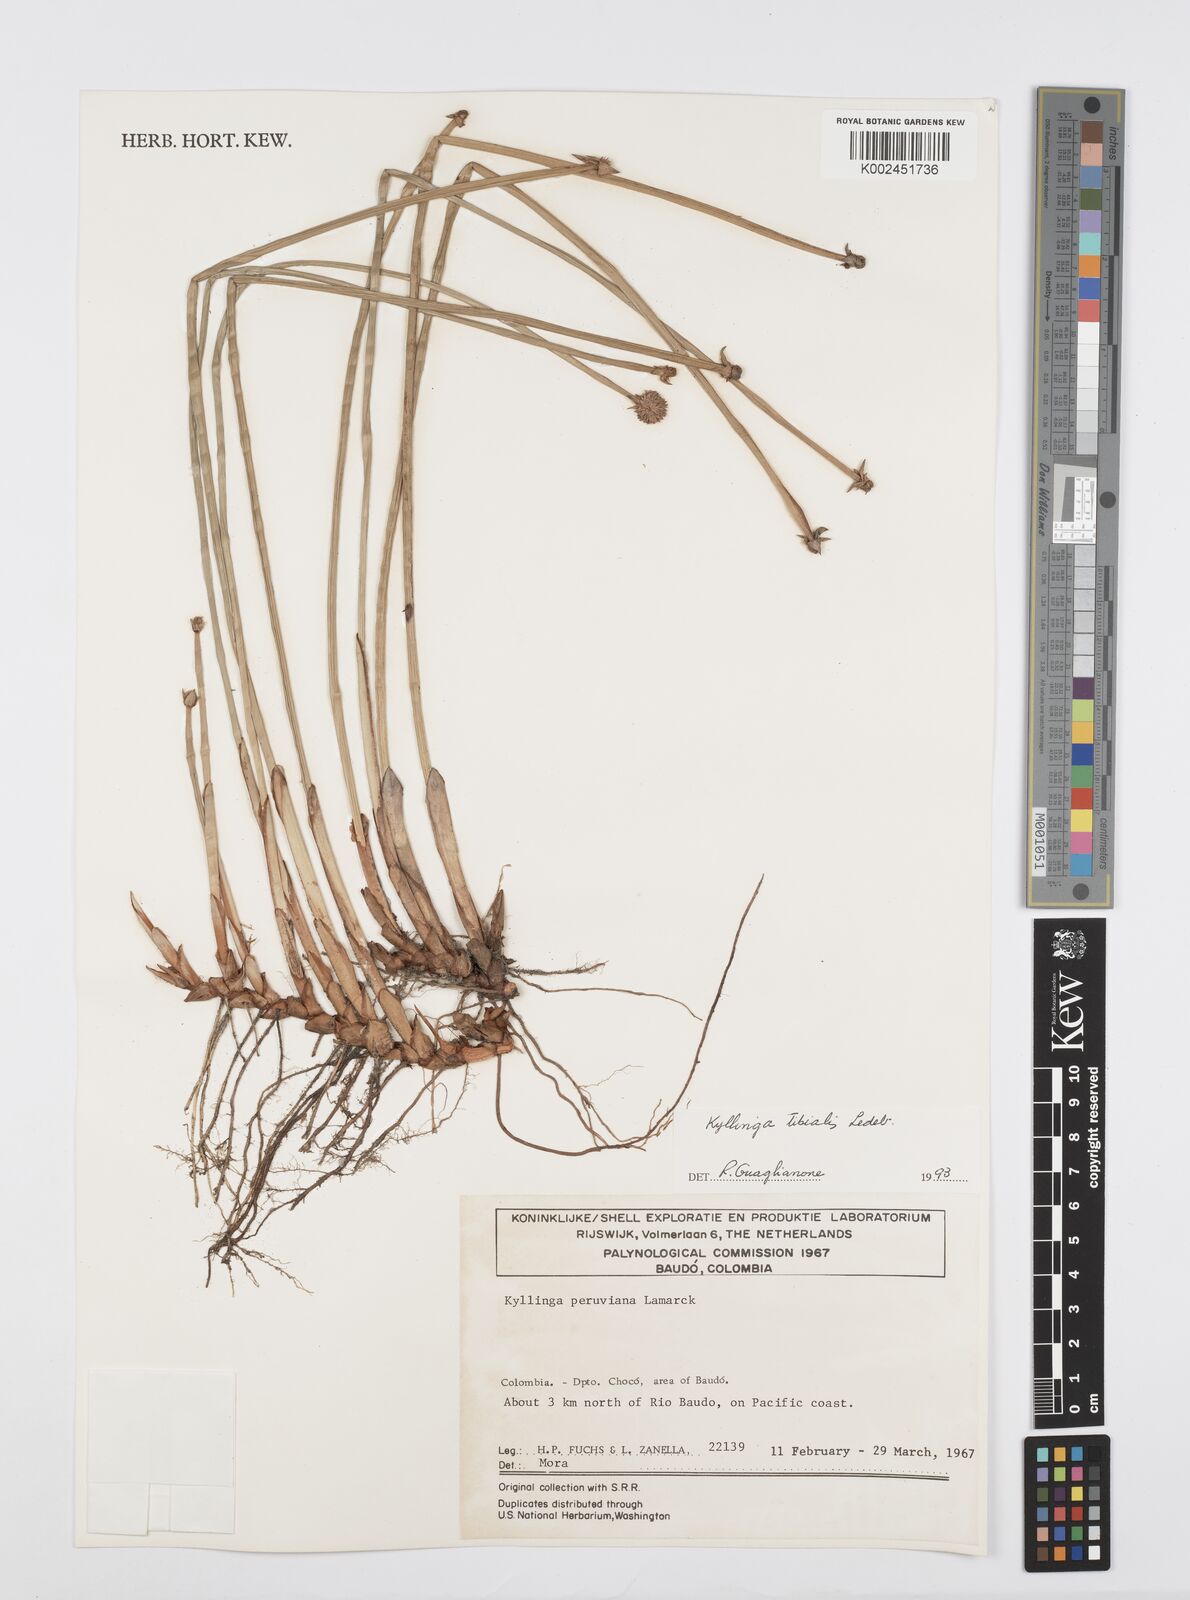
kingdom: Plantae
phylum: Tracheophyta
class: Liliopsida
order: Poales
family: Cyperaceae
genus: Cyperus
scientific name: Cyperus obtusatus
